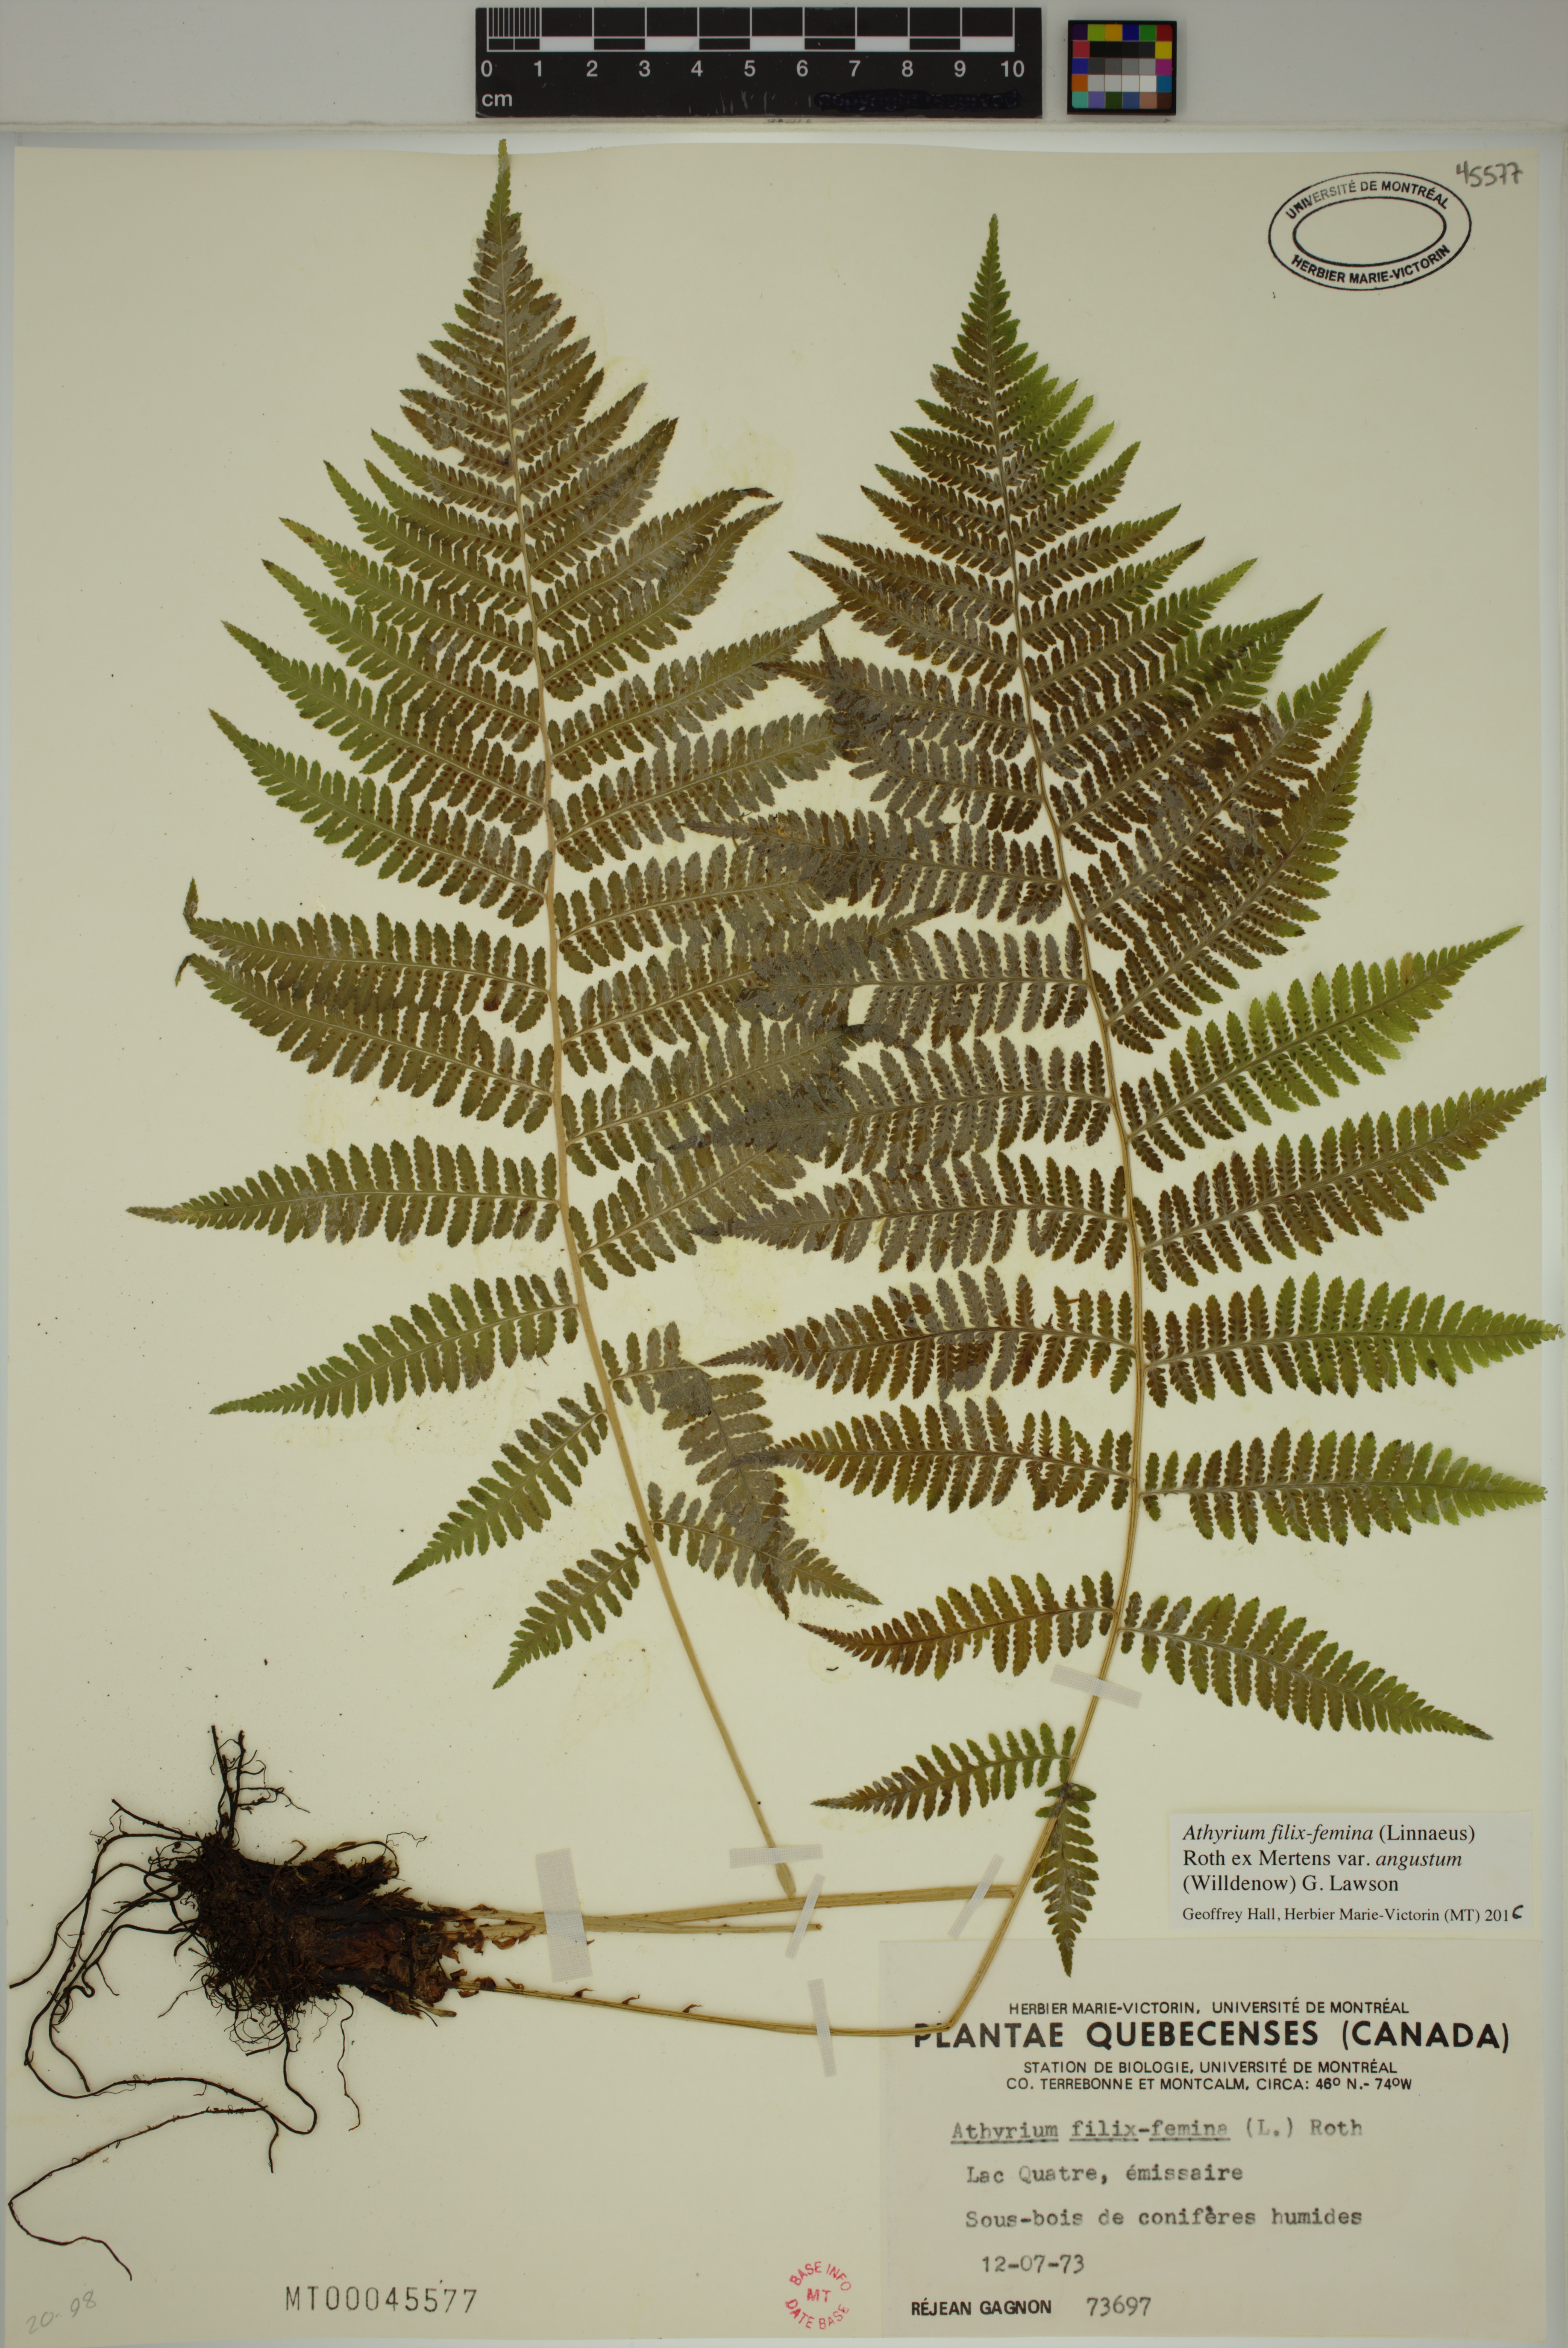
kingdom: Plantae
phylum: Tracheophyta
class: Polypodiopsida
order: Polypodiales
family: Athyriaceae
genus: Athyrium
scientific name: Athyrium angustum
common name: Northern lady fern
